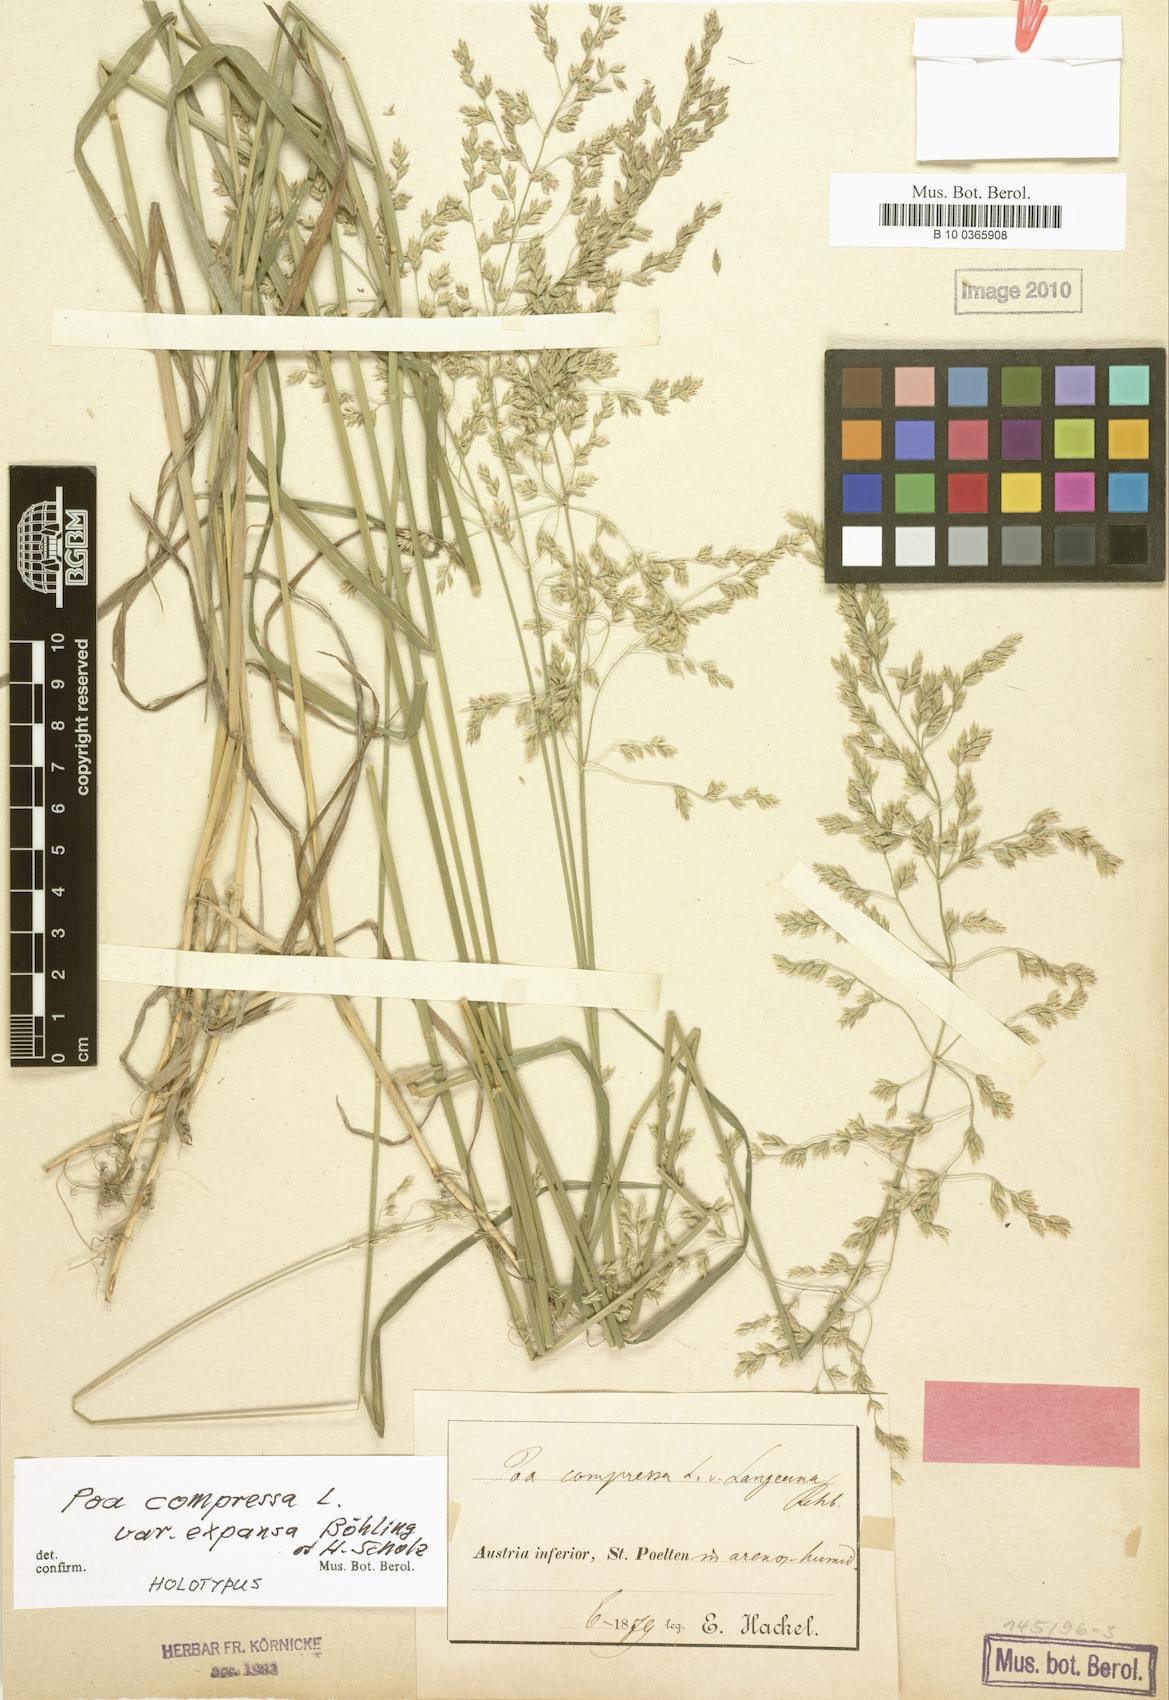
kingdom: Plantae
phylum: Tracheophyta
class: Liliopsida
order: Poales
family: Poaceae
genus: Poa
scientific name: Poa compressa
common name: Canada bluegrass
